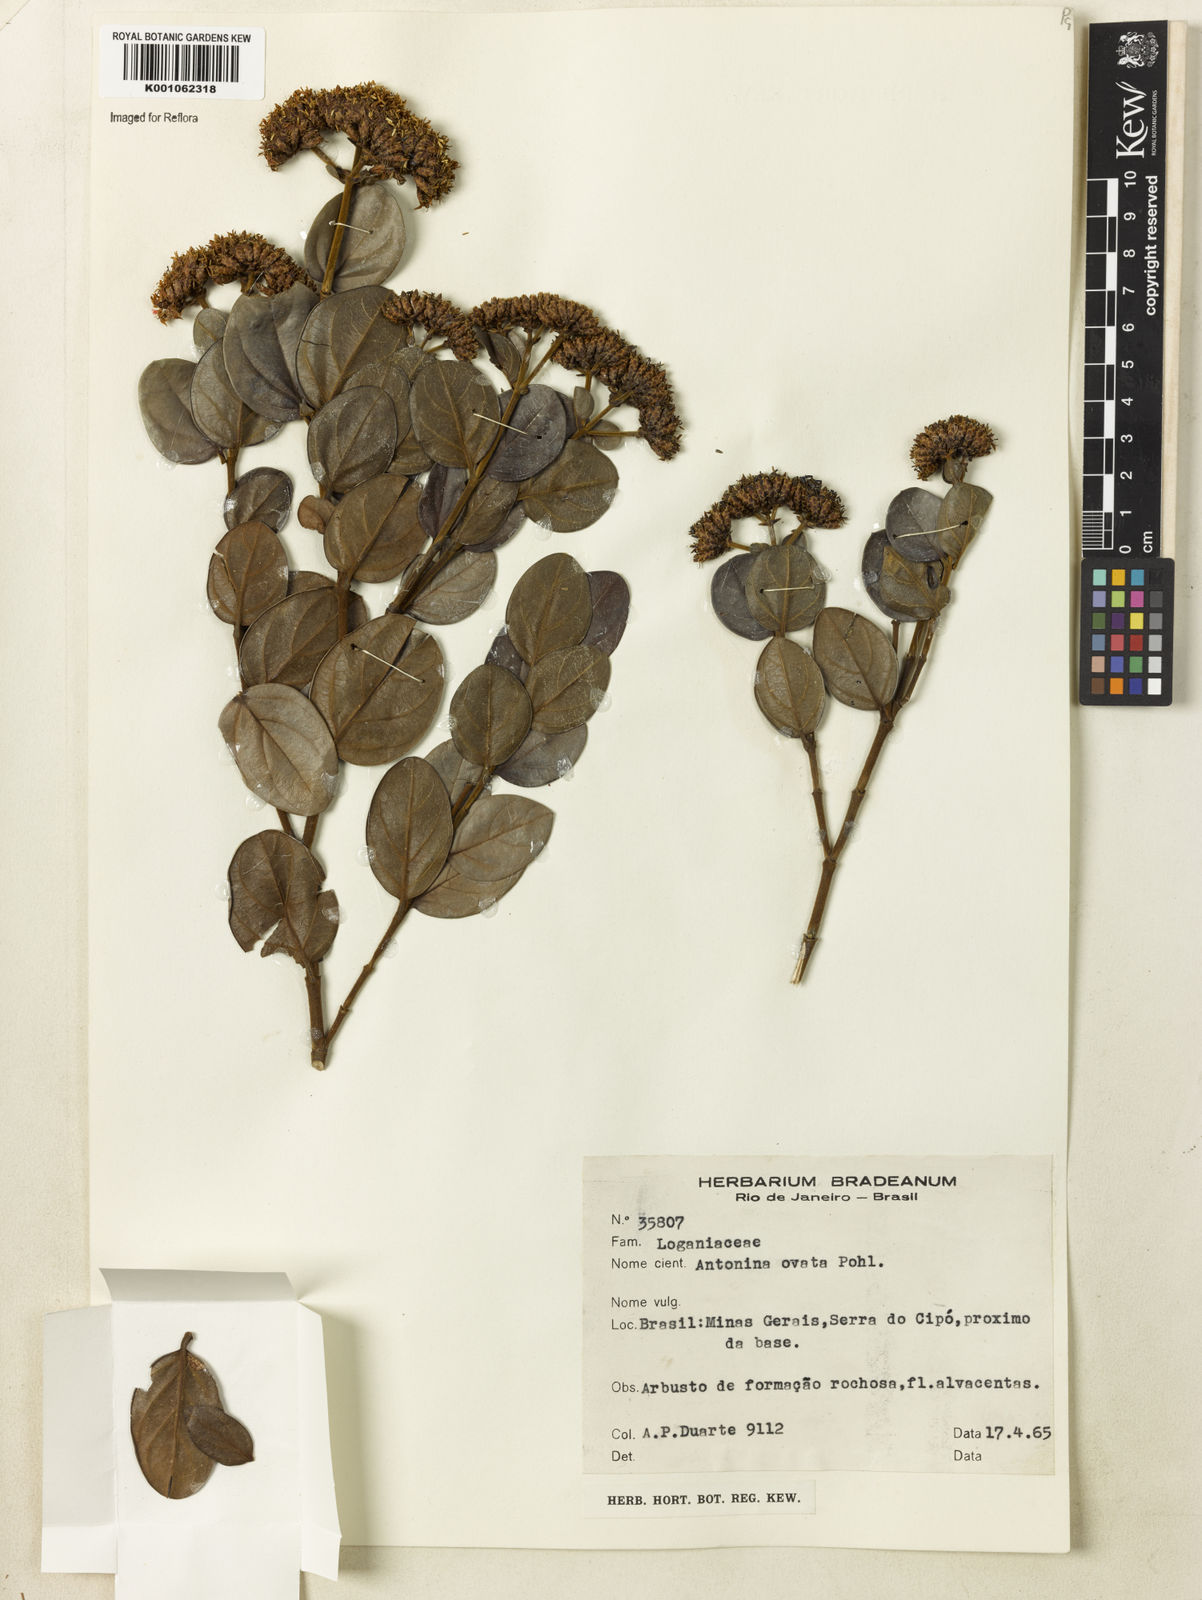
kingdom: Plantae
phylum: Tracheophyta
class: Magnoliopsida
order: Gentianales
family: Loganiaceae
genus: Antonia
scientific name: Antonia ovata
